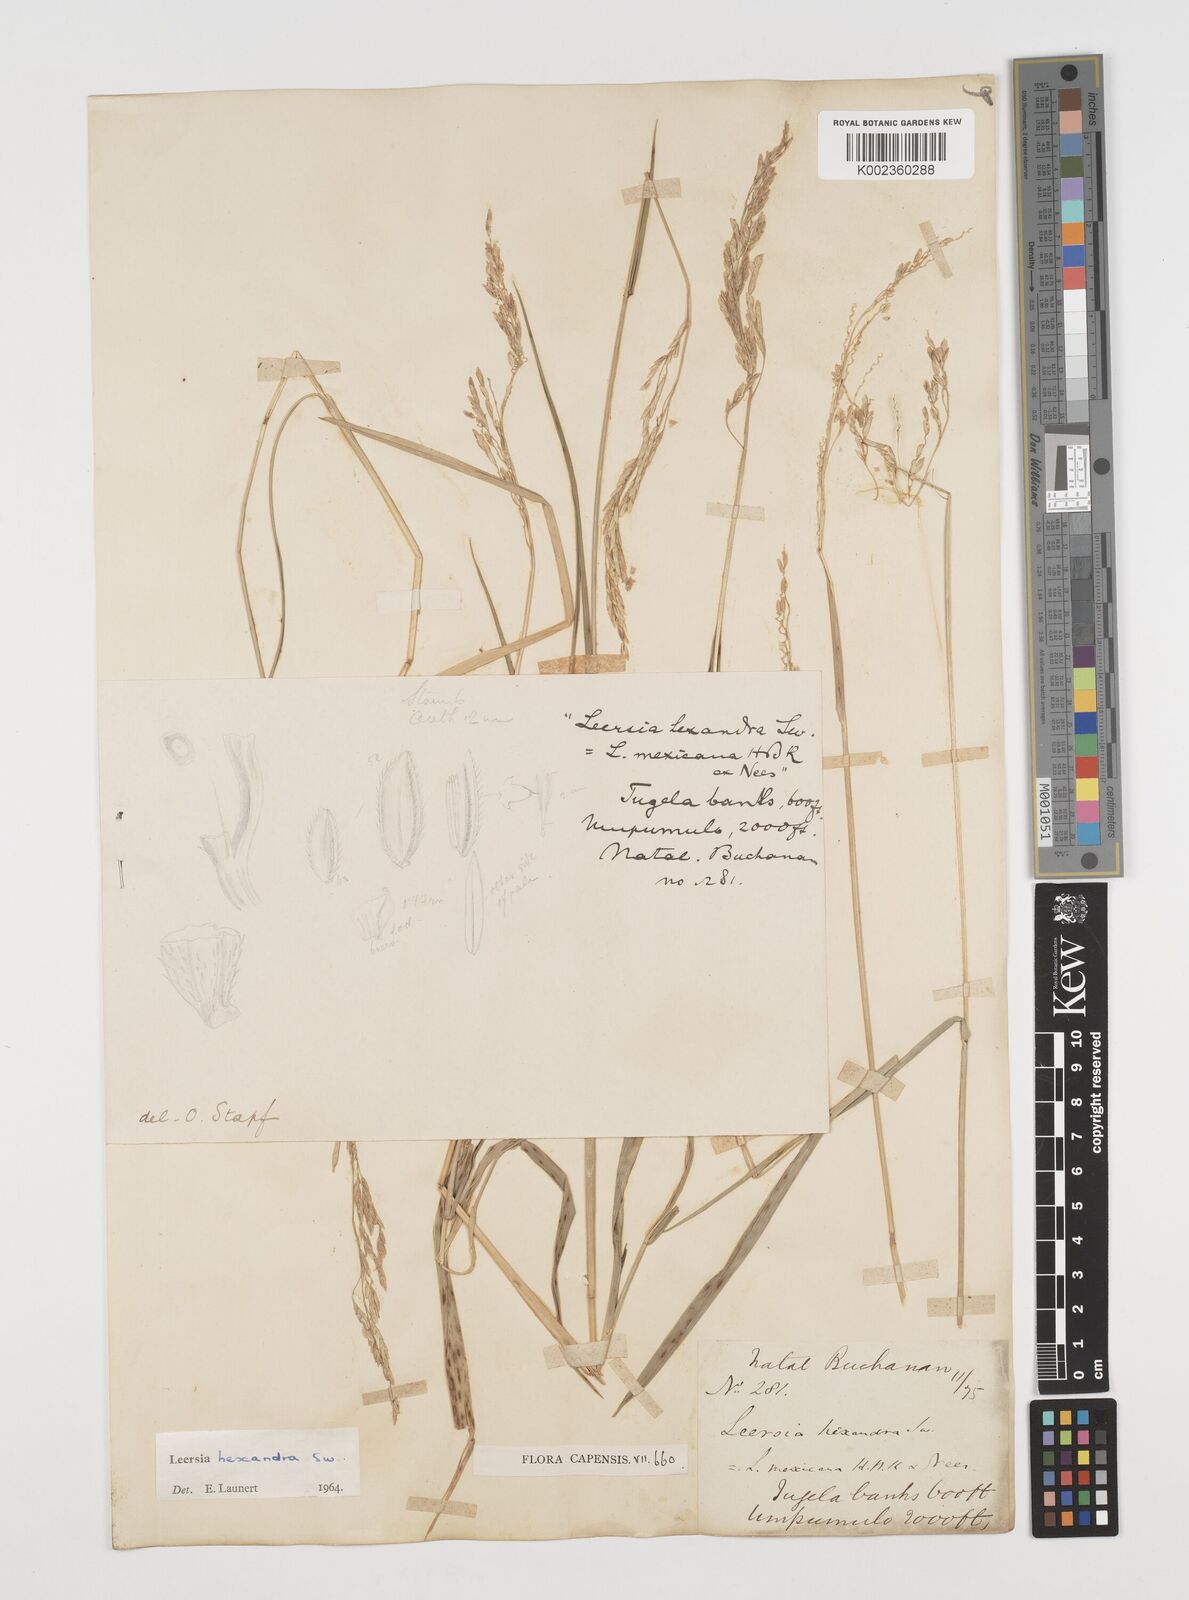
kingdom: Plantae
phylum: Tracheophyta
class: Liliopsida
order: Poales
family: Poaceae
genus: Leersia
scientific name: Leersia hexandra
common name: Southern cut grass
